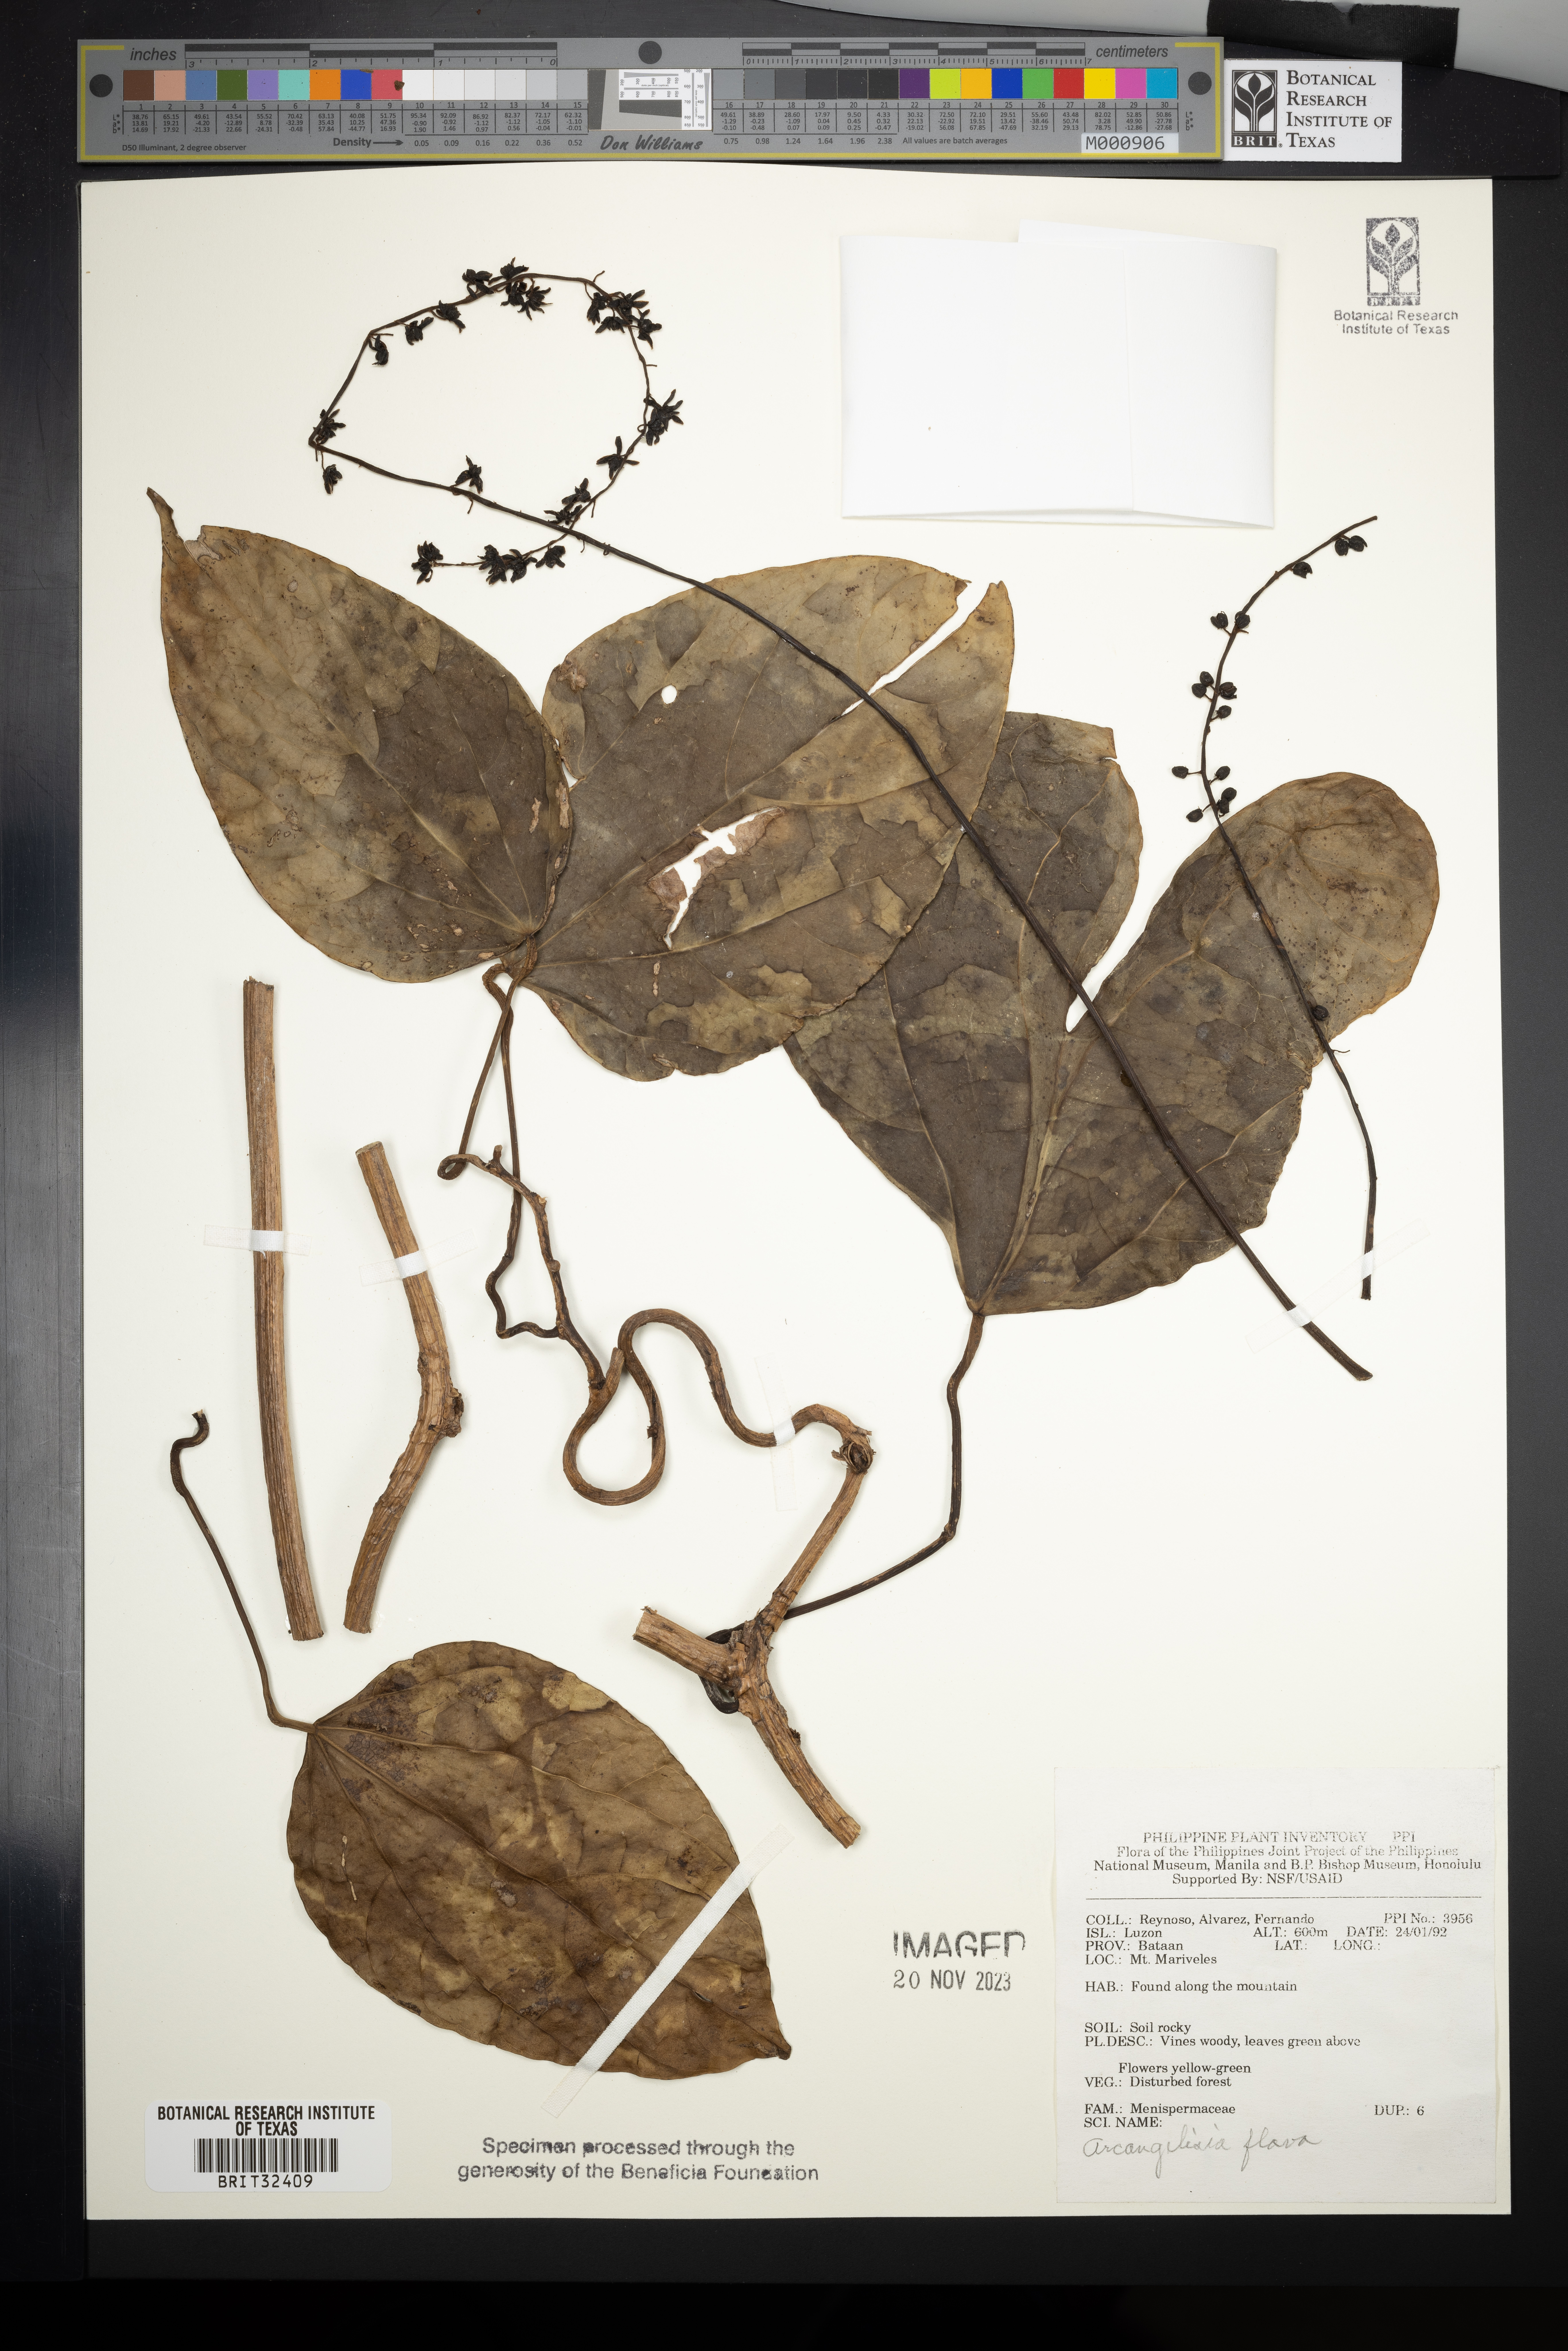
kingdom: Plantae
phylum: Tracheophyta
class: Magnoliopsida
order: Ranunculales
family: Menispermaceae
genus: Arcangelisia
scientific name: Arcangelisia flava
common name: Yellow-fruit moonseed
